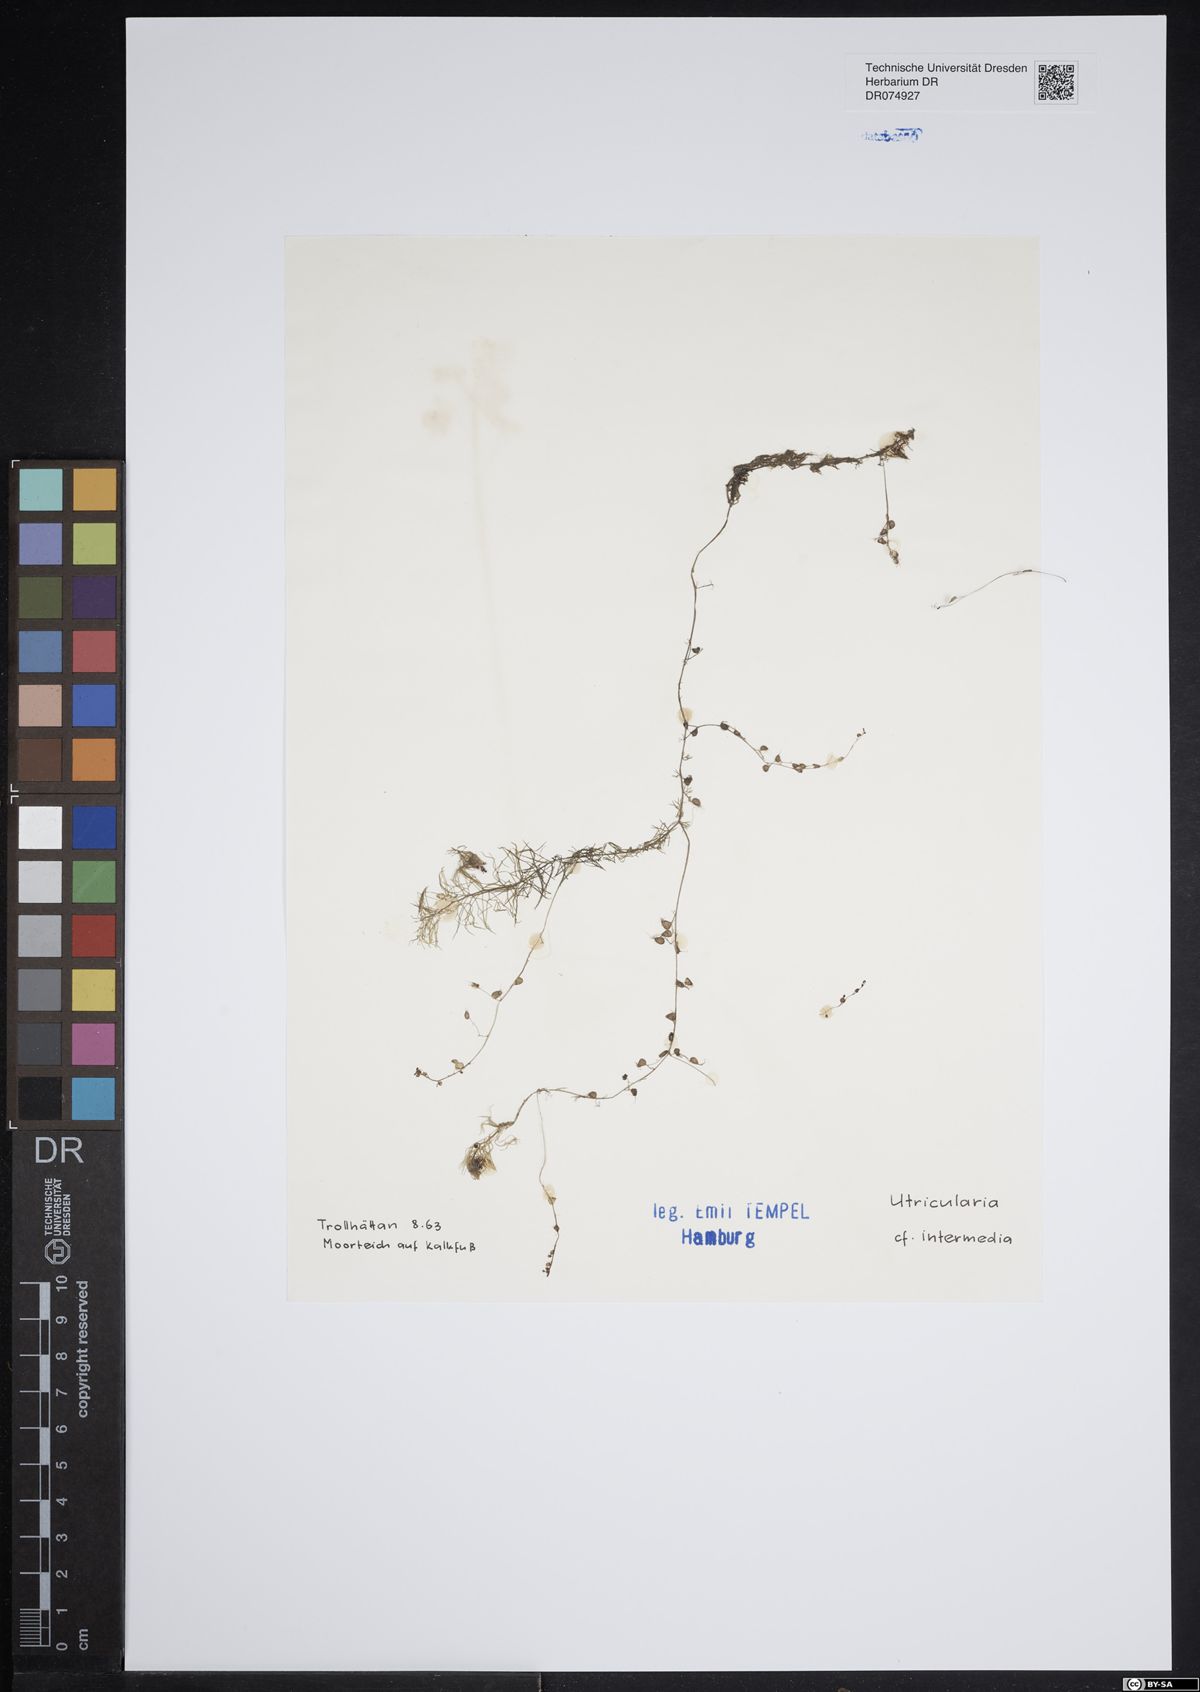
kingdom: Plantae
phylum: Tracheophyta
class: Magnoliopsida
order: Lamiales
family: Lentibulariaceae
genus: Utricularia
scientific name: Utricularia intermedia
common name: Intermediate bladderwort
